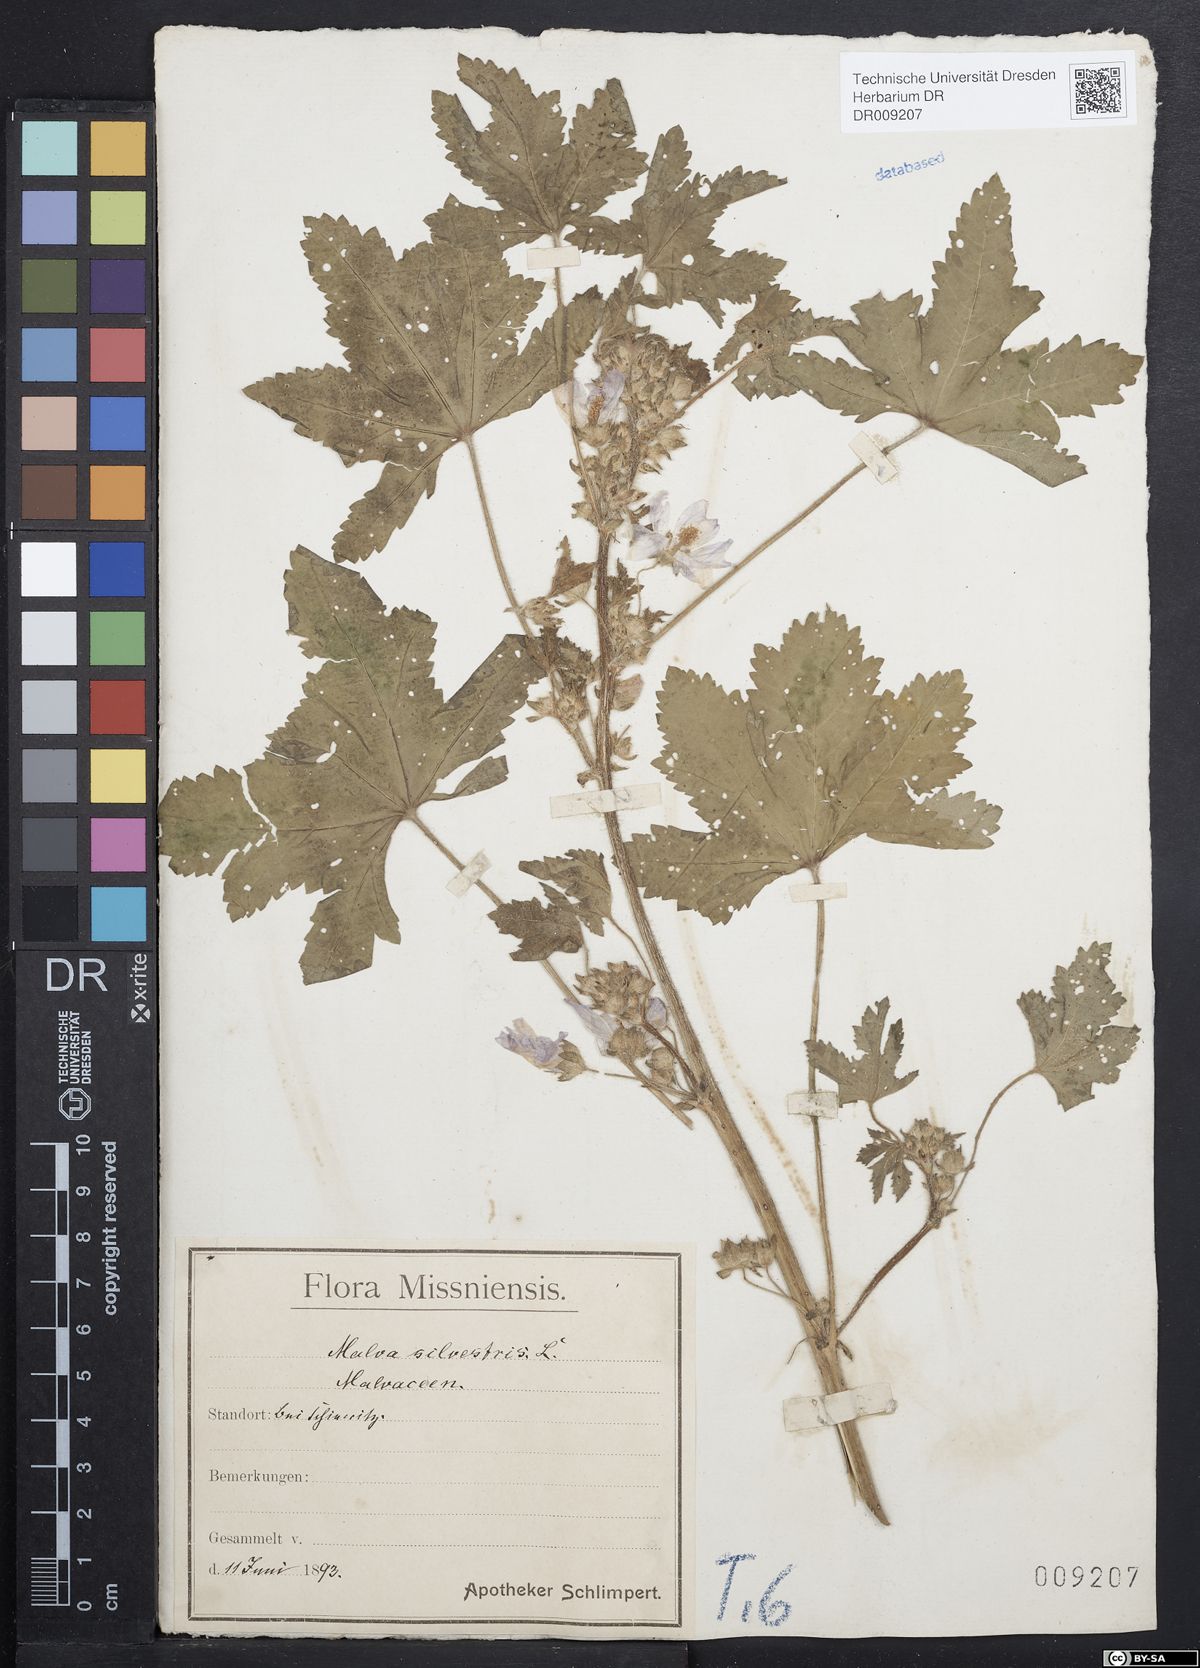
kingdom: Plantae
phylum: Tracheophyta
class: Magnoliopsida
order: Malvales
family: Malvaceae
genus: Malva
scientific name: Malva sylvestris
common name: Common mallow
